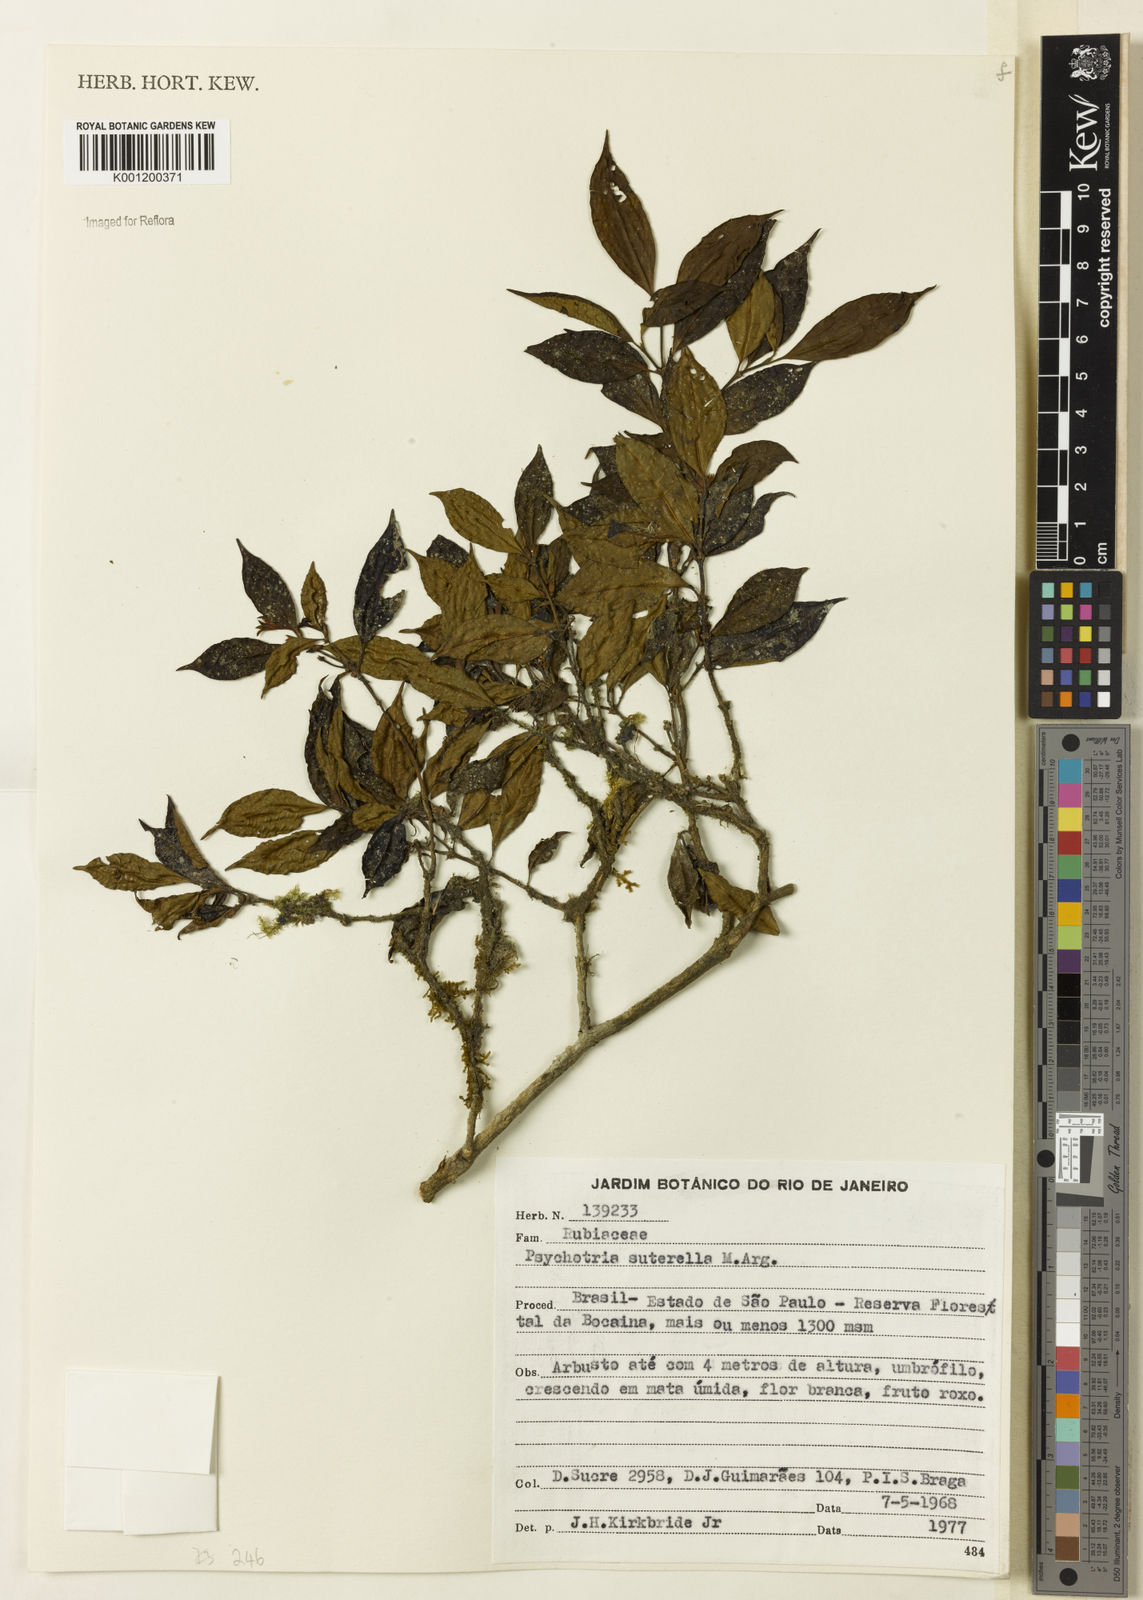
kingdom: Plantae
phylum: Tracheophyta
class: Magnoliopsida
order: Gentianales
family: Rubiaceae
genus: Psychotria
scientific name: Psychotria
